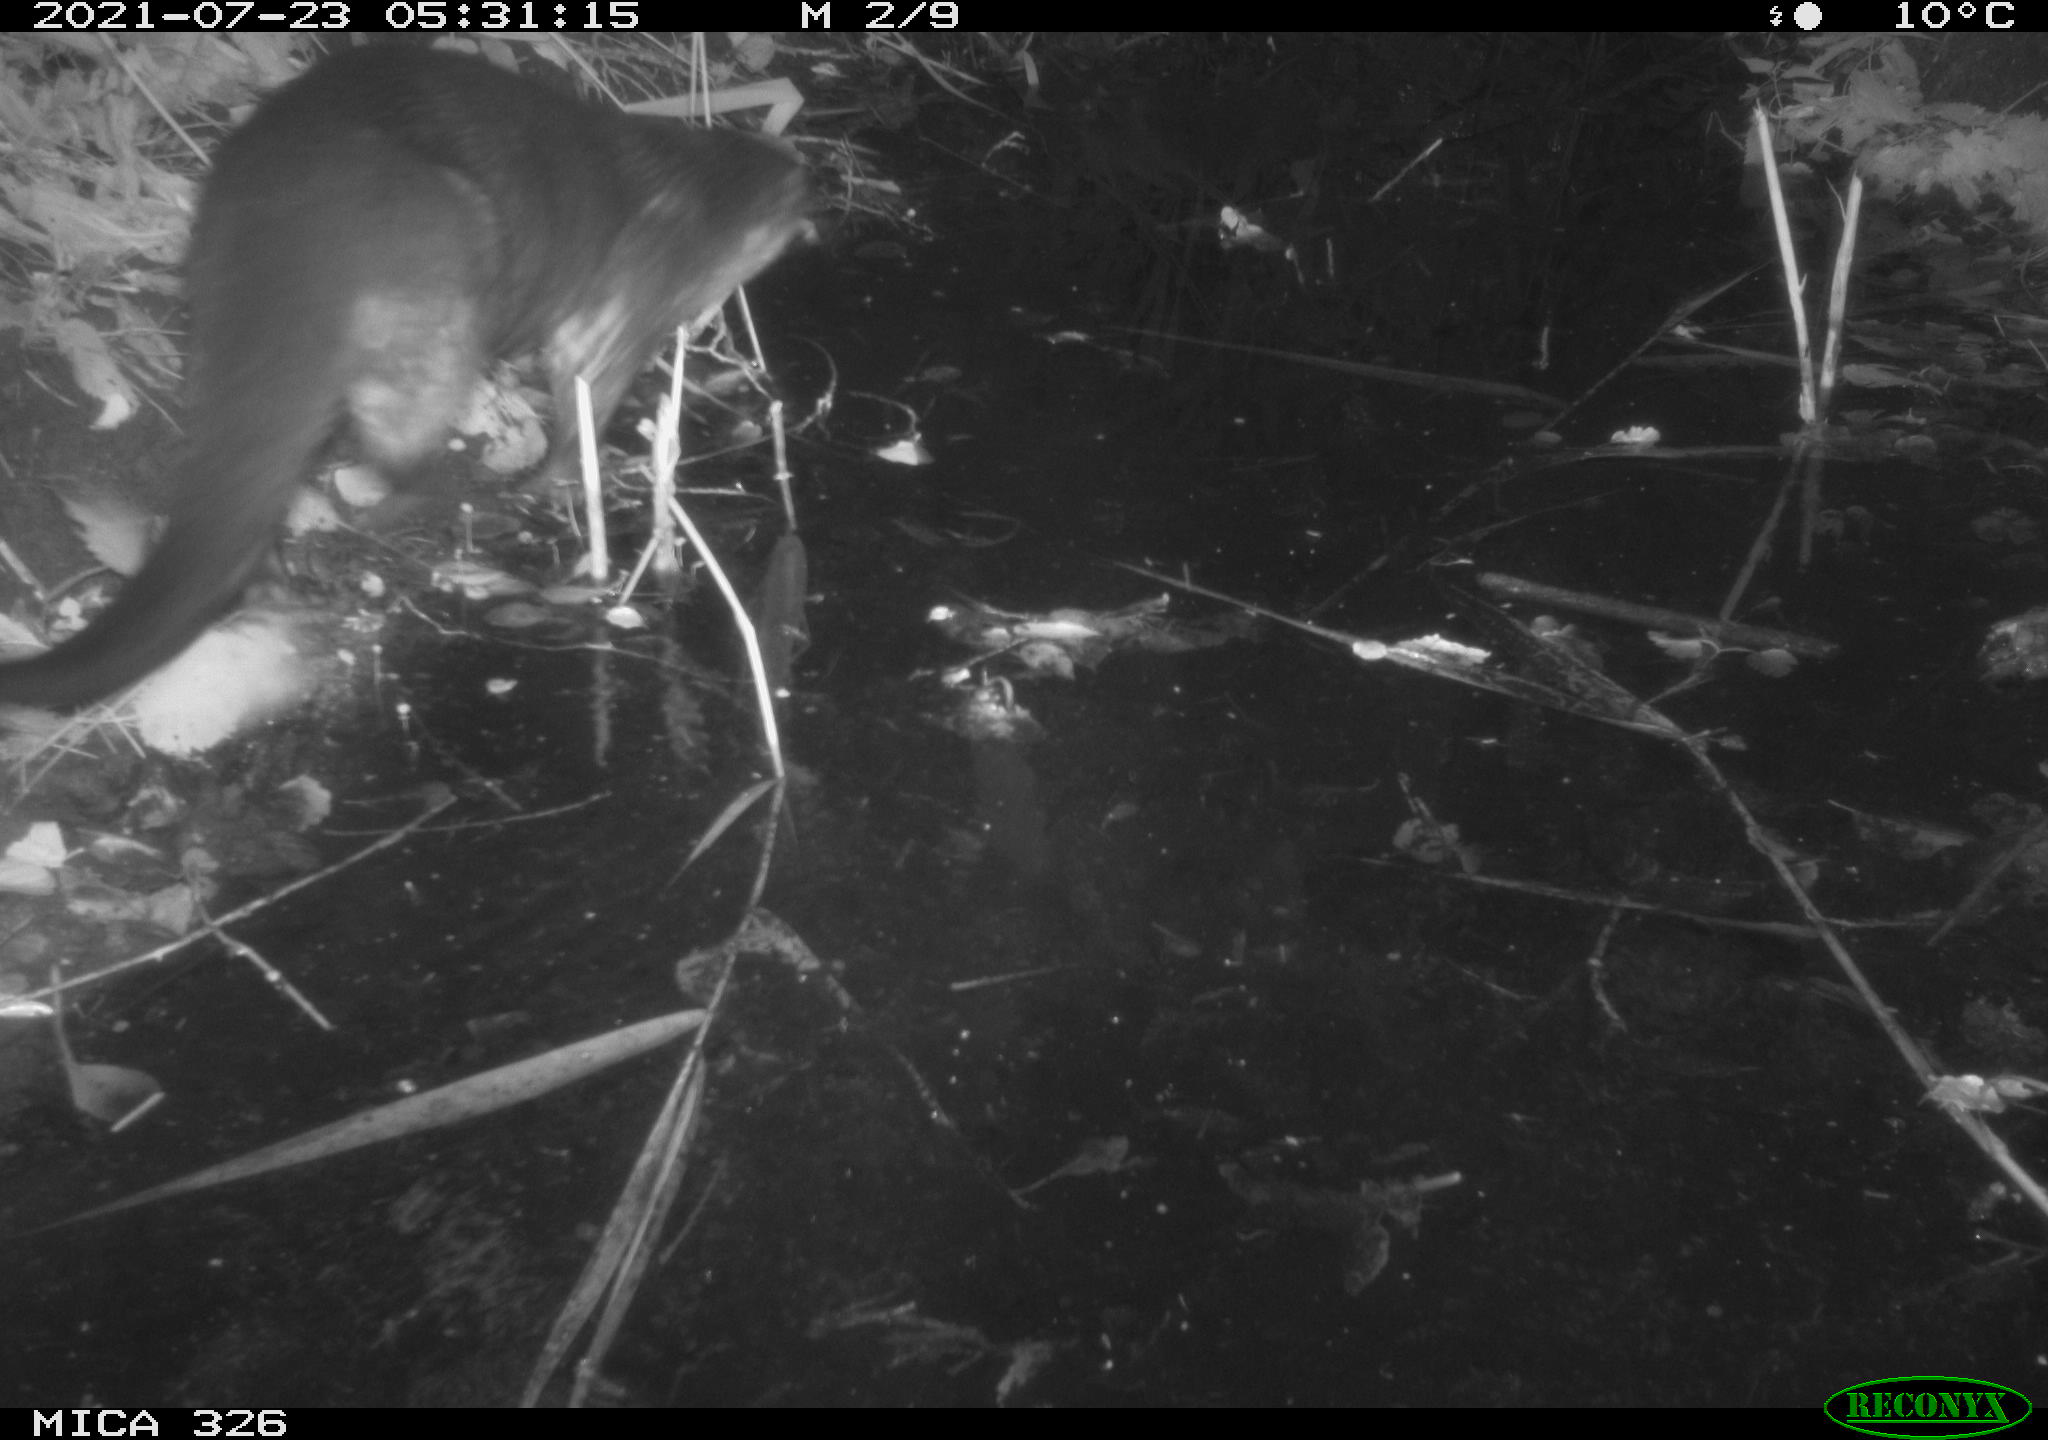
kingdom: Animalia
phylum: Chordata
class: Mammalia
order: Carnivora
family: Mustelidae
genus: Lutra
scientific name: Lutra lutra
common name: European otter
